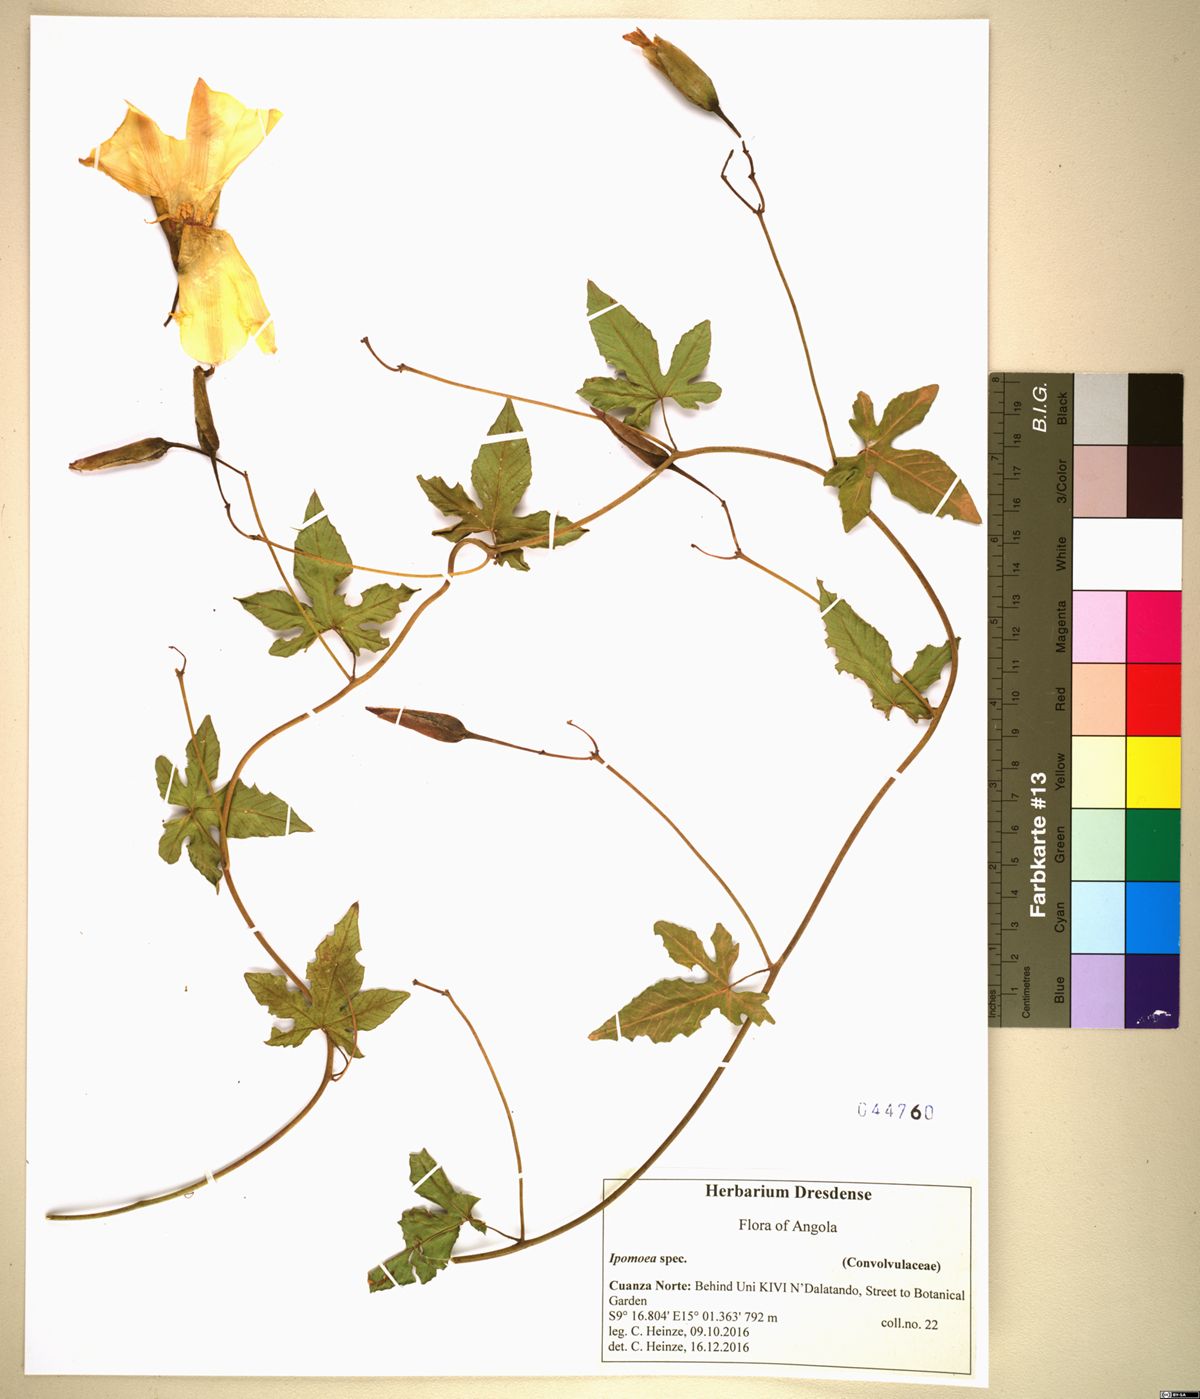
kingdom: Plantae
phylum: Tracheophyta
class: Magnoliopsida
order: Solanales
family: Convolvulaceae
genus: Distimake
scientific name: Distimake dissectus
